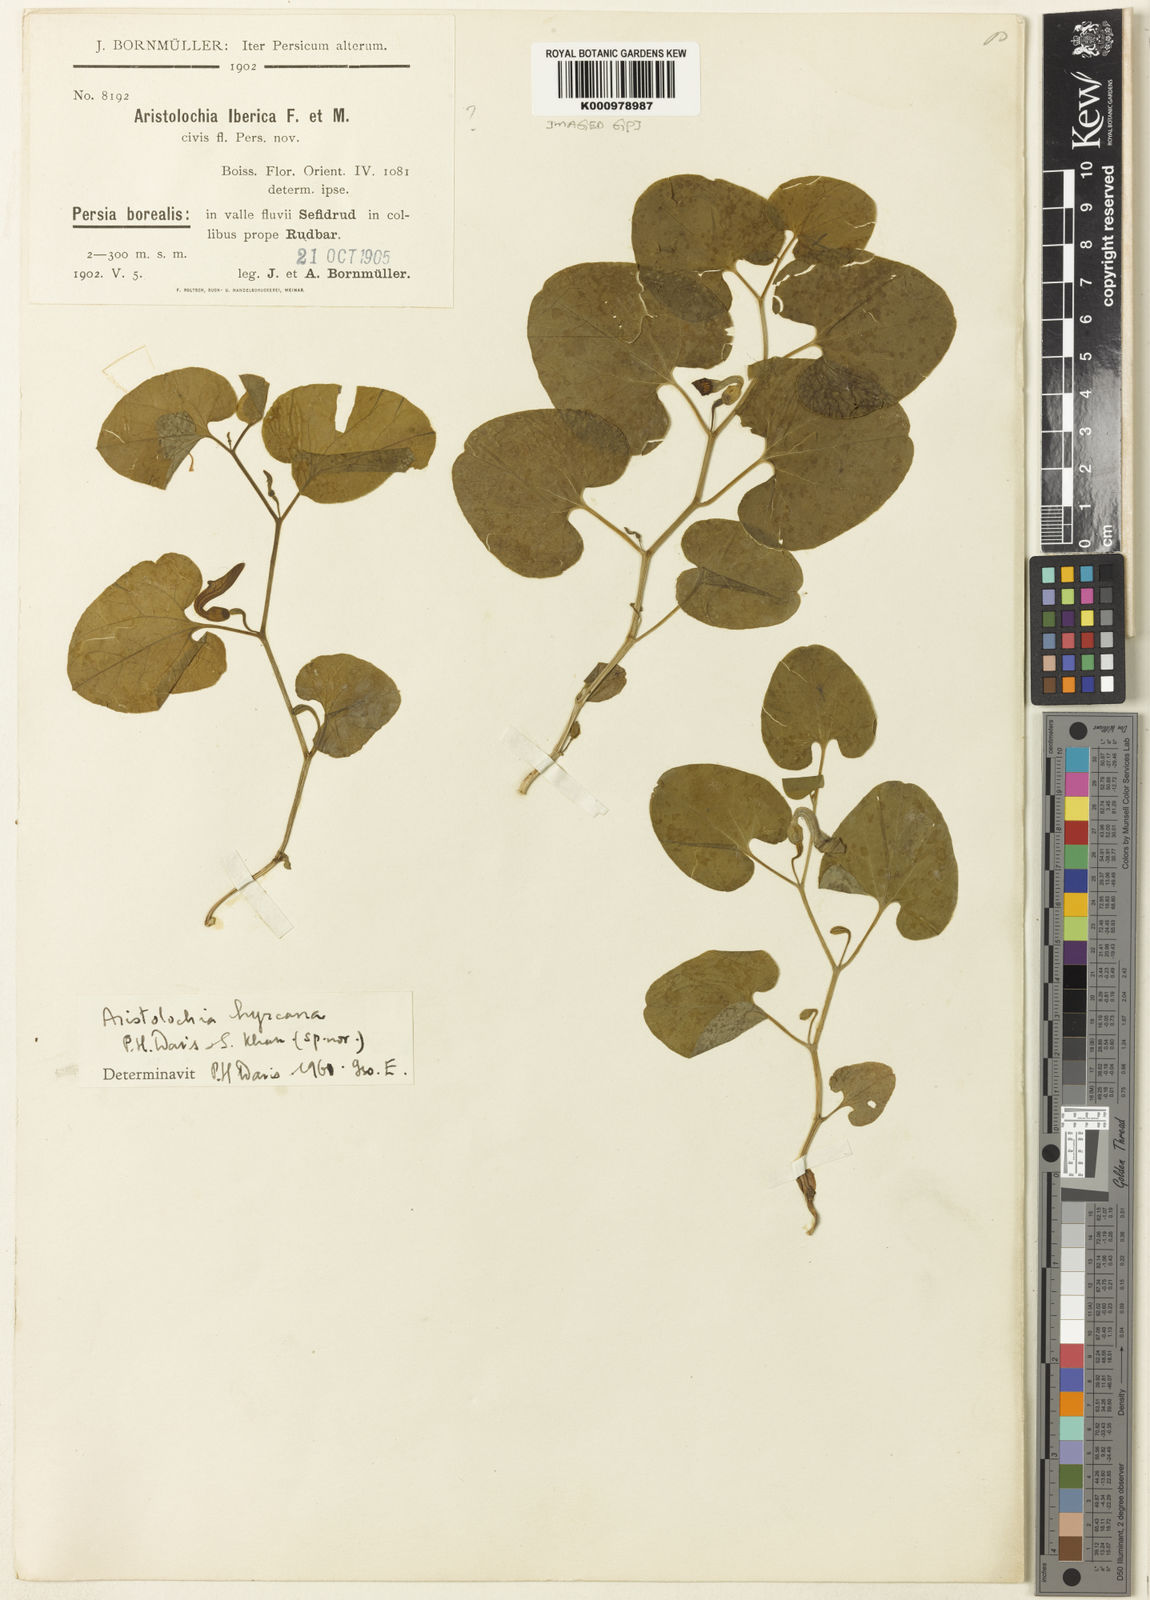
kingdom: Plantae
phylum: Tracheophyta
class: Magnoliopsida
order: Piperales
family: Aristolochiaceae
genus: Aristolochia
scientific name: Aristolochia hyrcana
